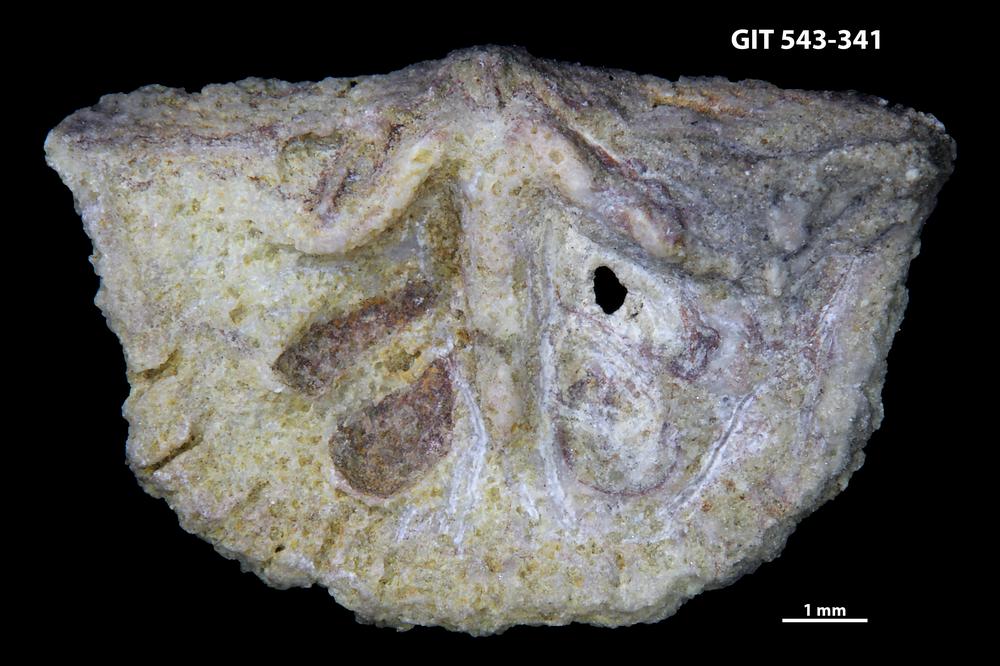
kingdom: Animalia
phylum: Brachiopoda
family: Kullervoidae
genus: Kullervo
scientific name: Kullervo lacunata
